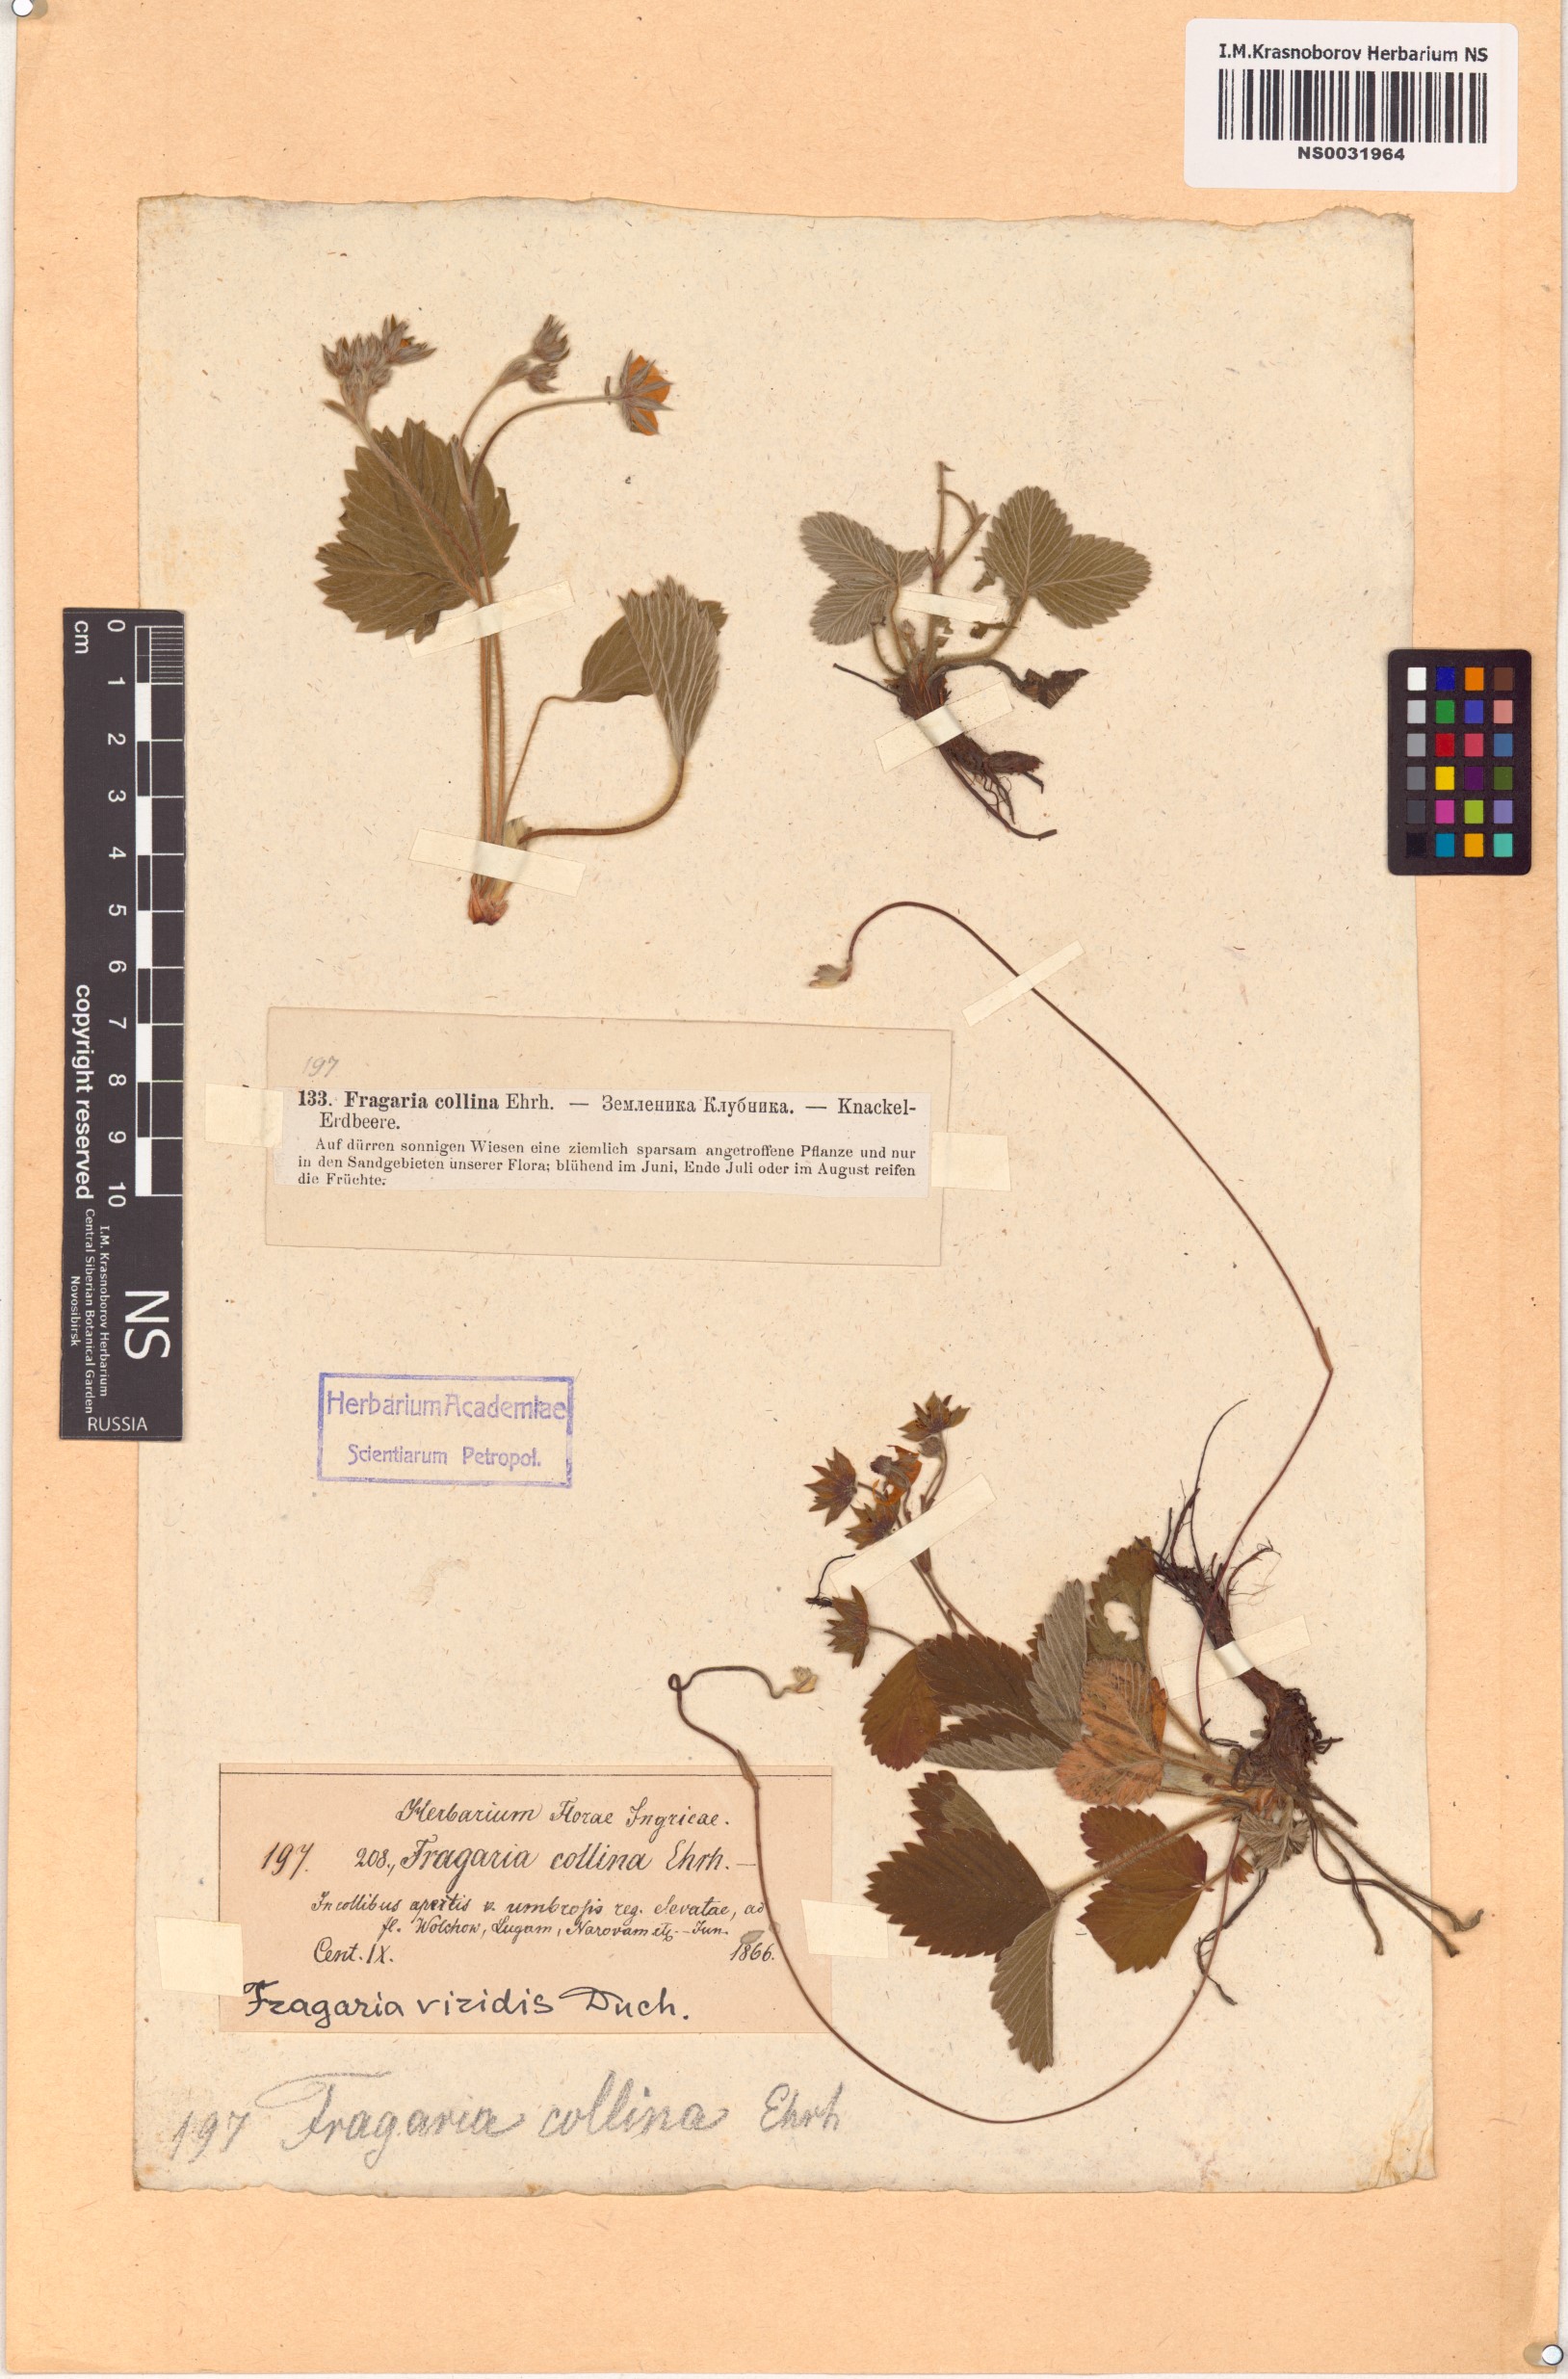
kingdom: Plantae
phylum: Tracheophyta
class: Magnoliopsida
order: Rosales
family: Rosaceae
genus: Fragaria
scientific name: Fragaria viridis
